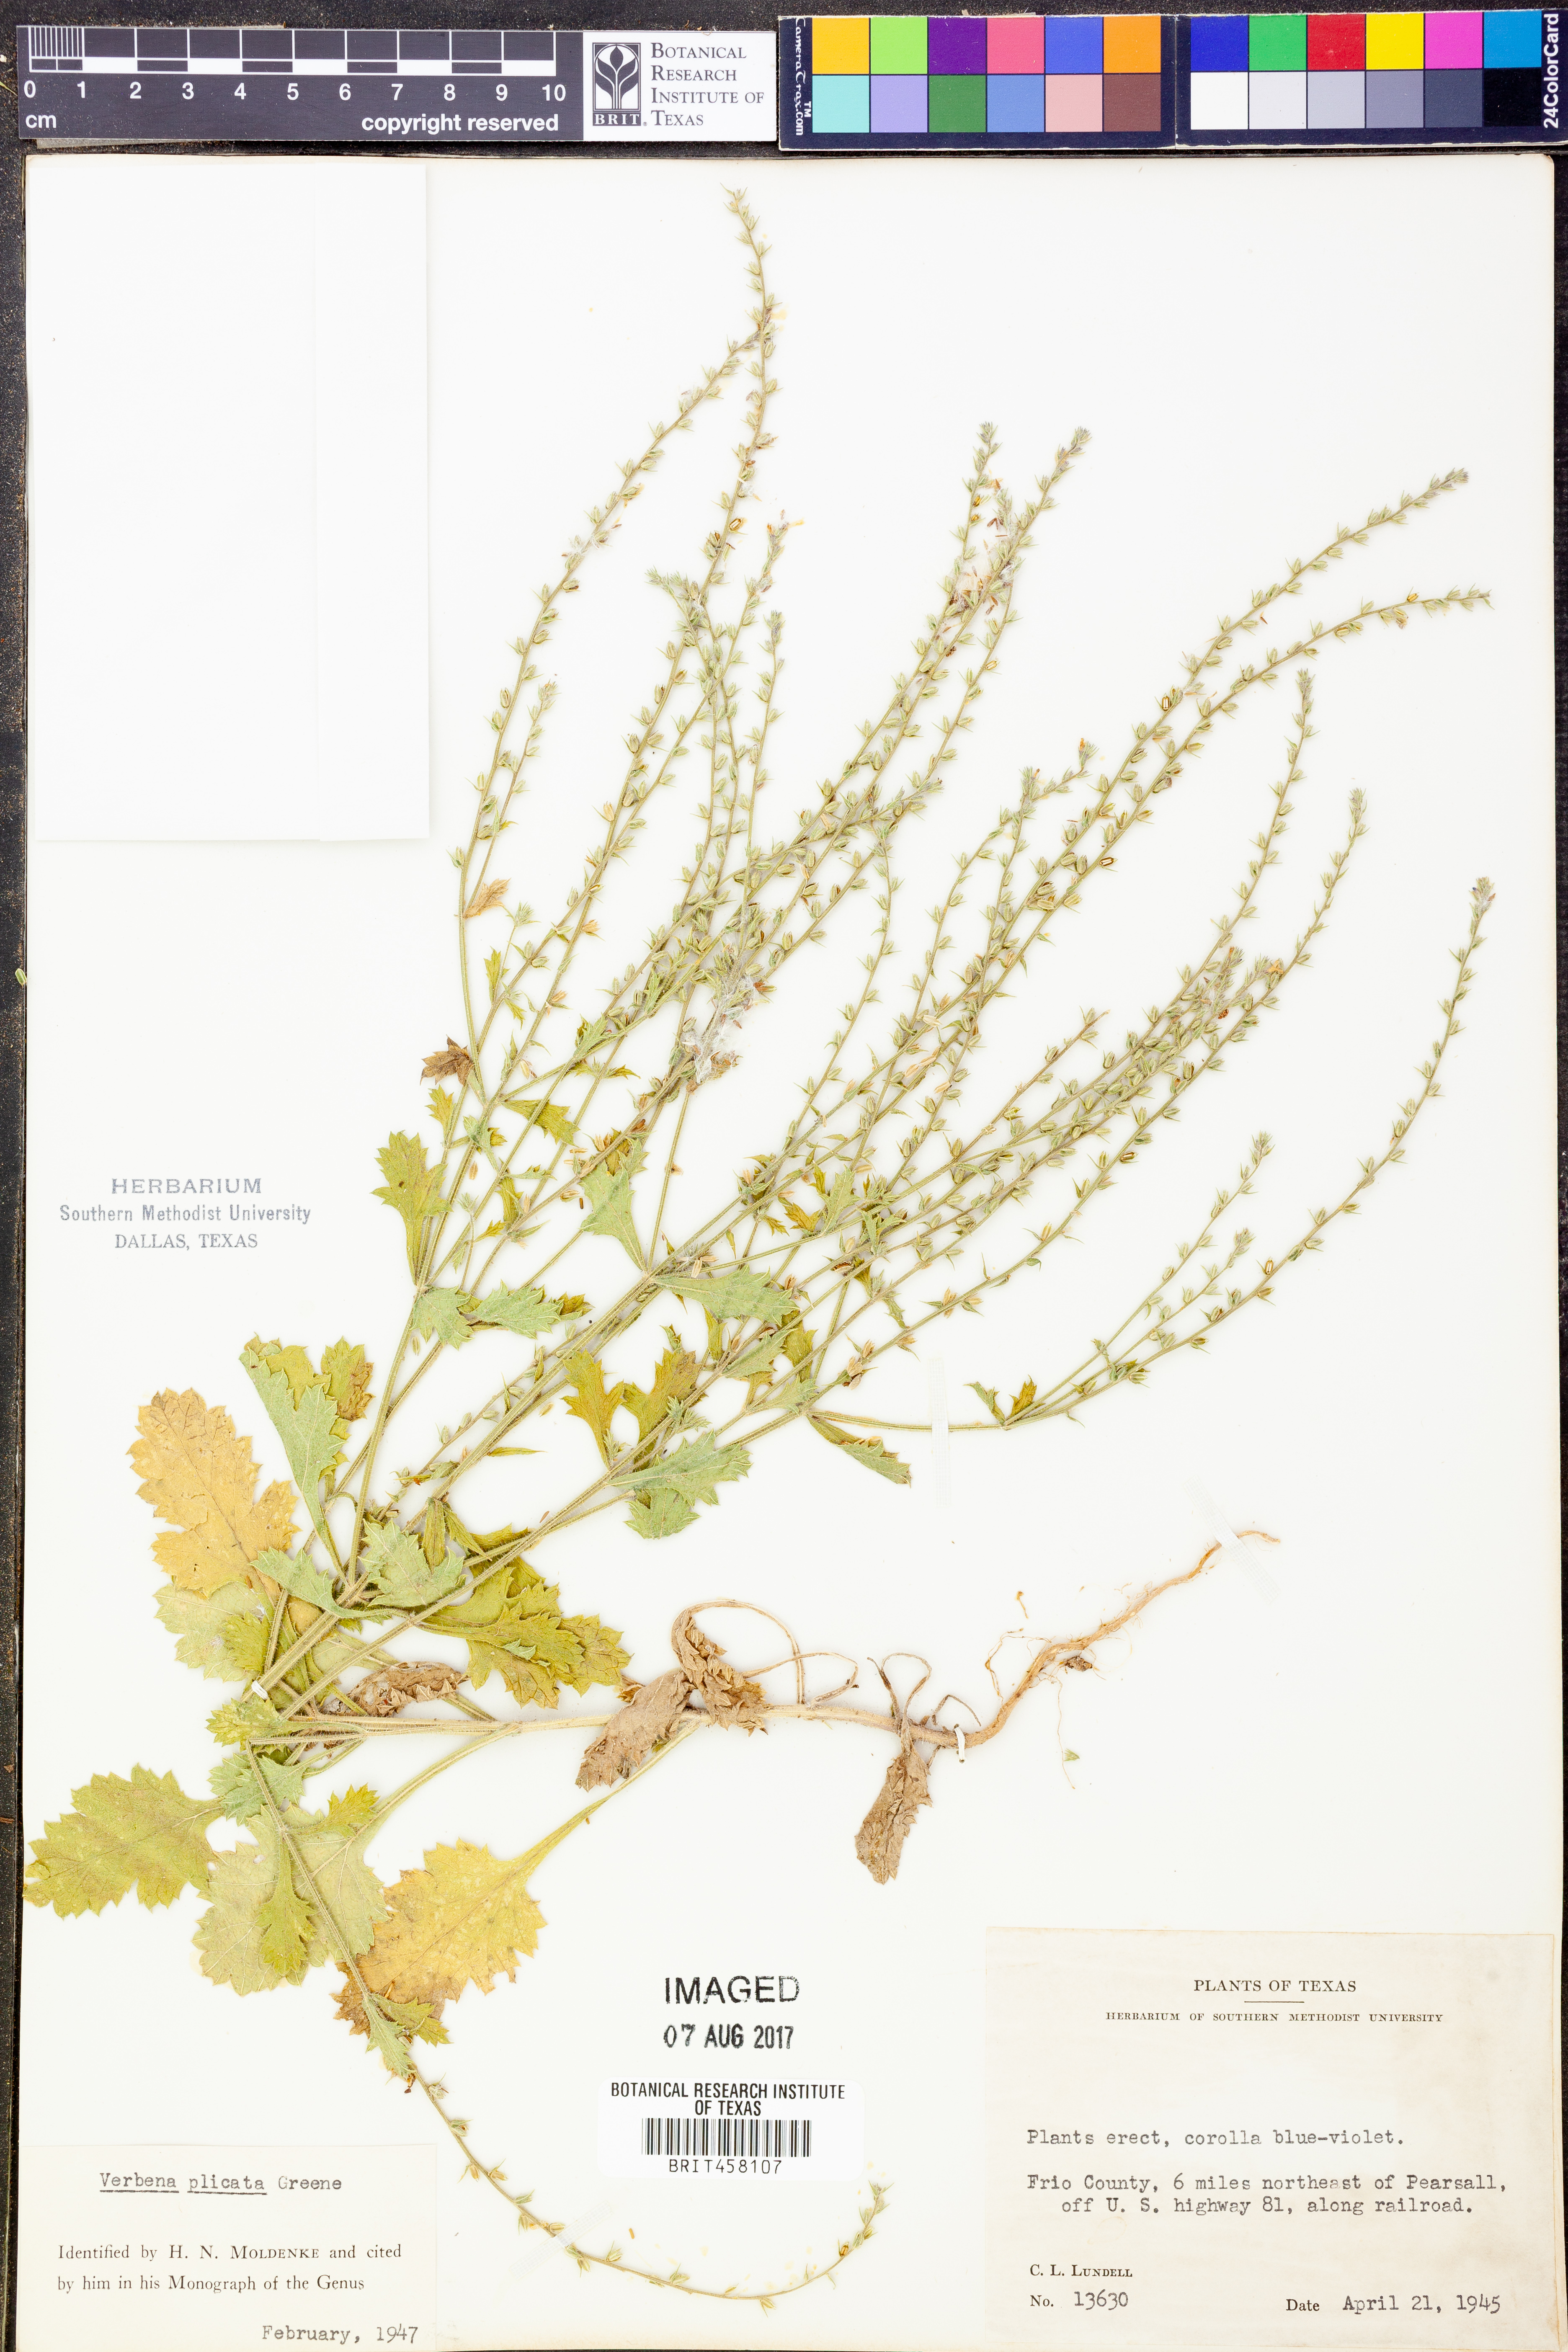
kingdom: Plantae
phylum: Tracheophyta
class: Magnoliopsida
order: Lamiales
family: Verbenaceae
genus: Verbena
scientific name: Verbena plicata
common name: Fan-leaf vervain
